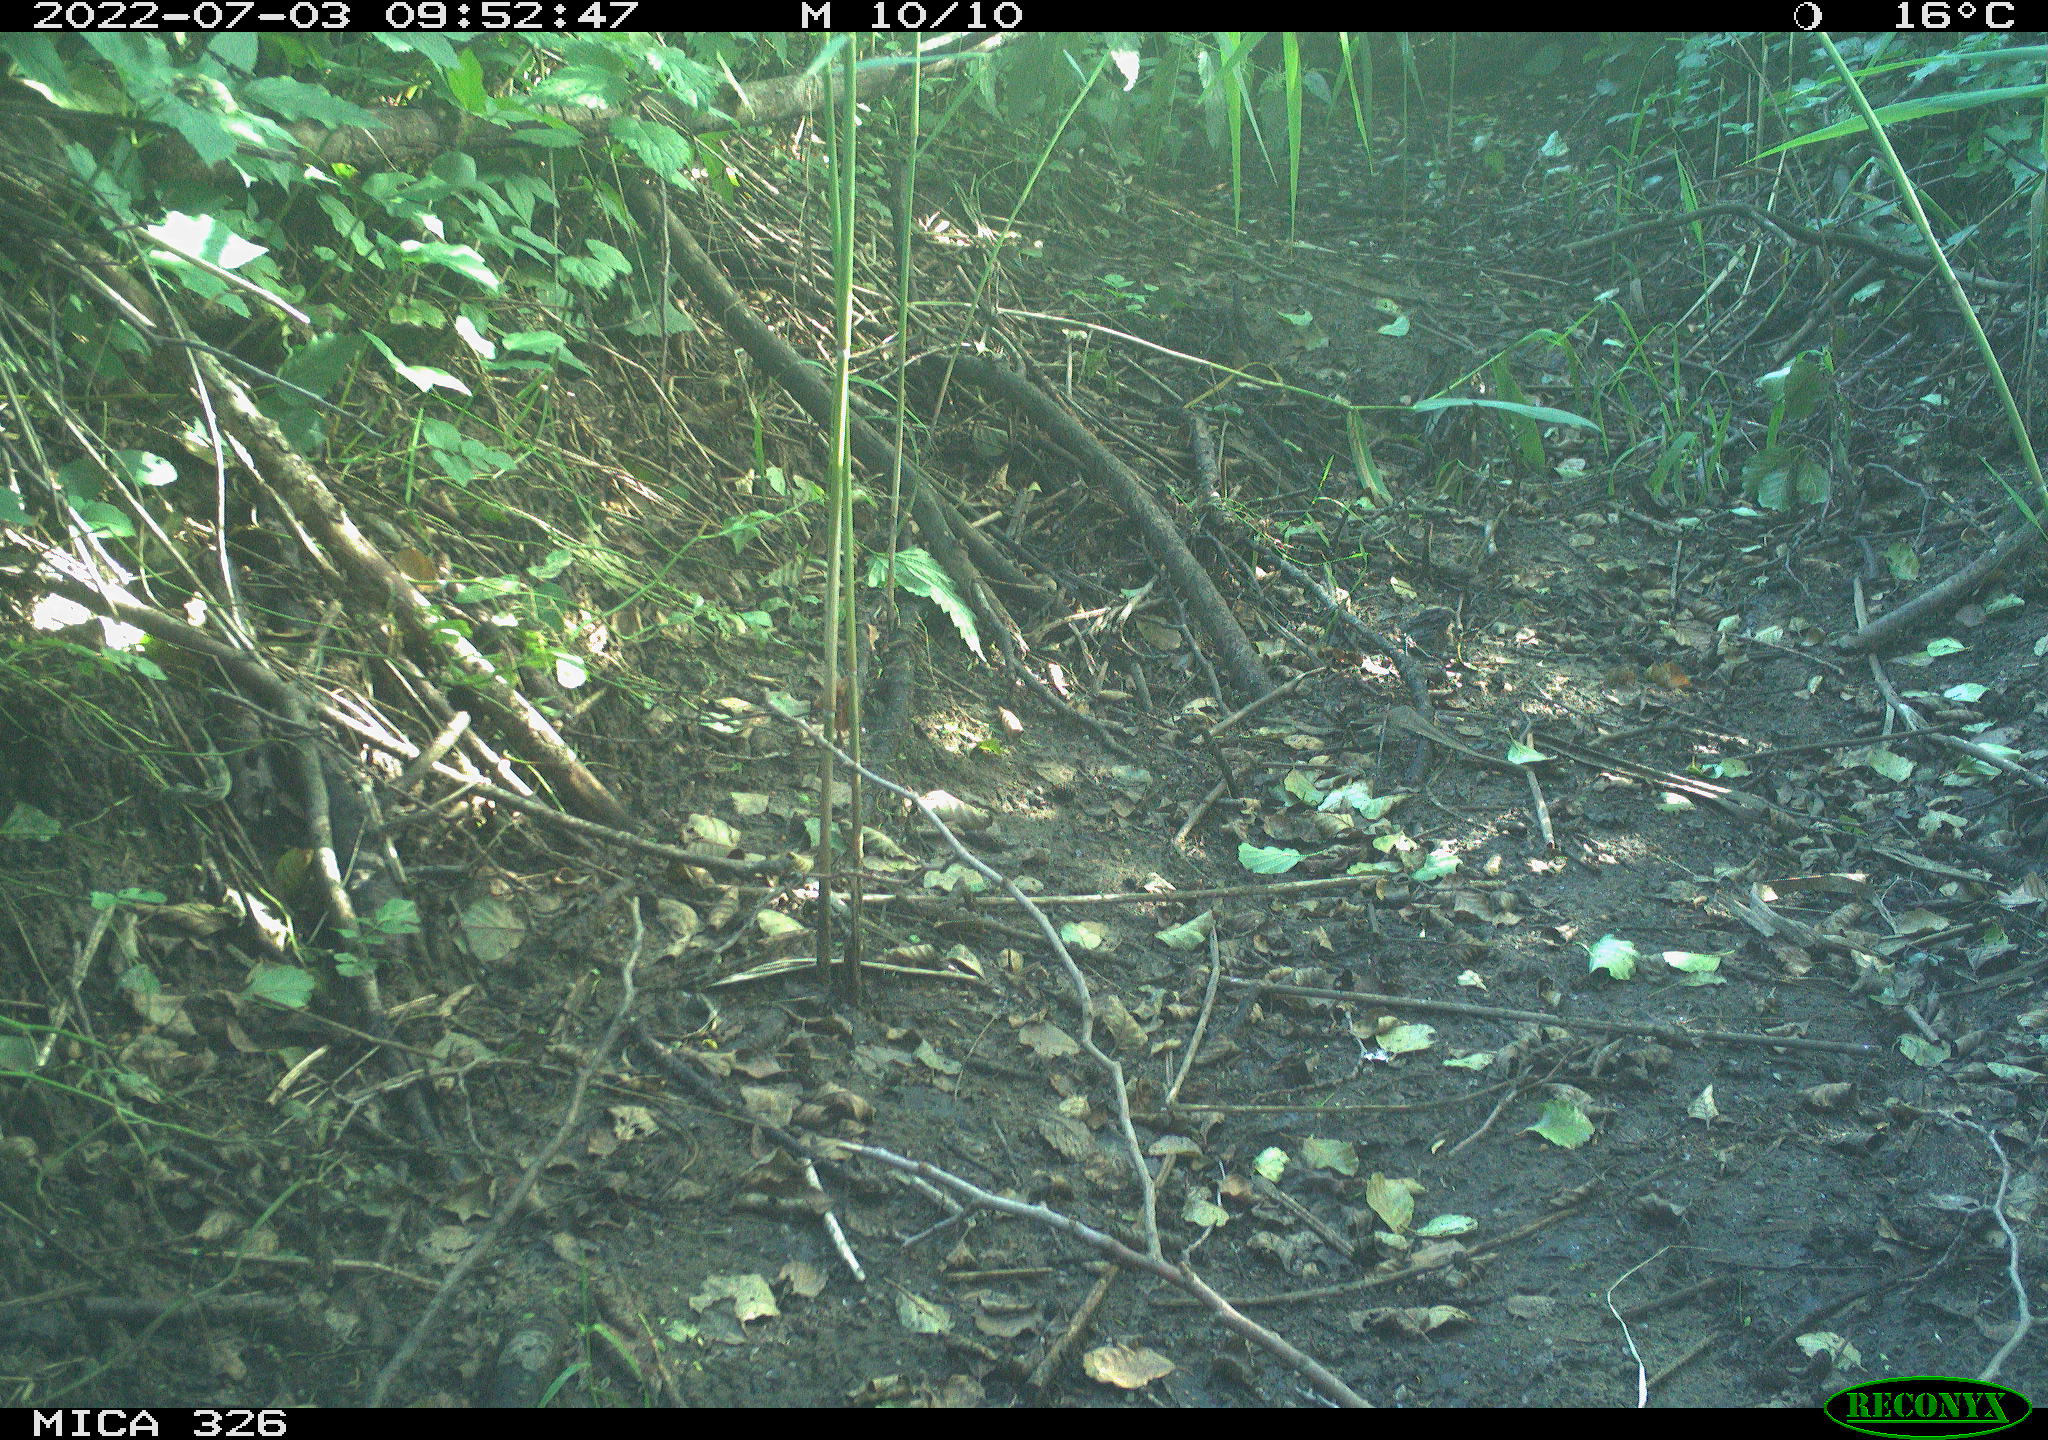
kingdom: Animalia
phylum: Chordata
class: Aves
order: Passeriformes
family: Turdidae
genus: Turdus
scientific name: Turdus philomelos
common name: Song thrush
